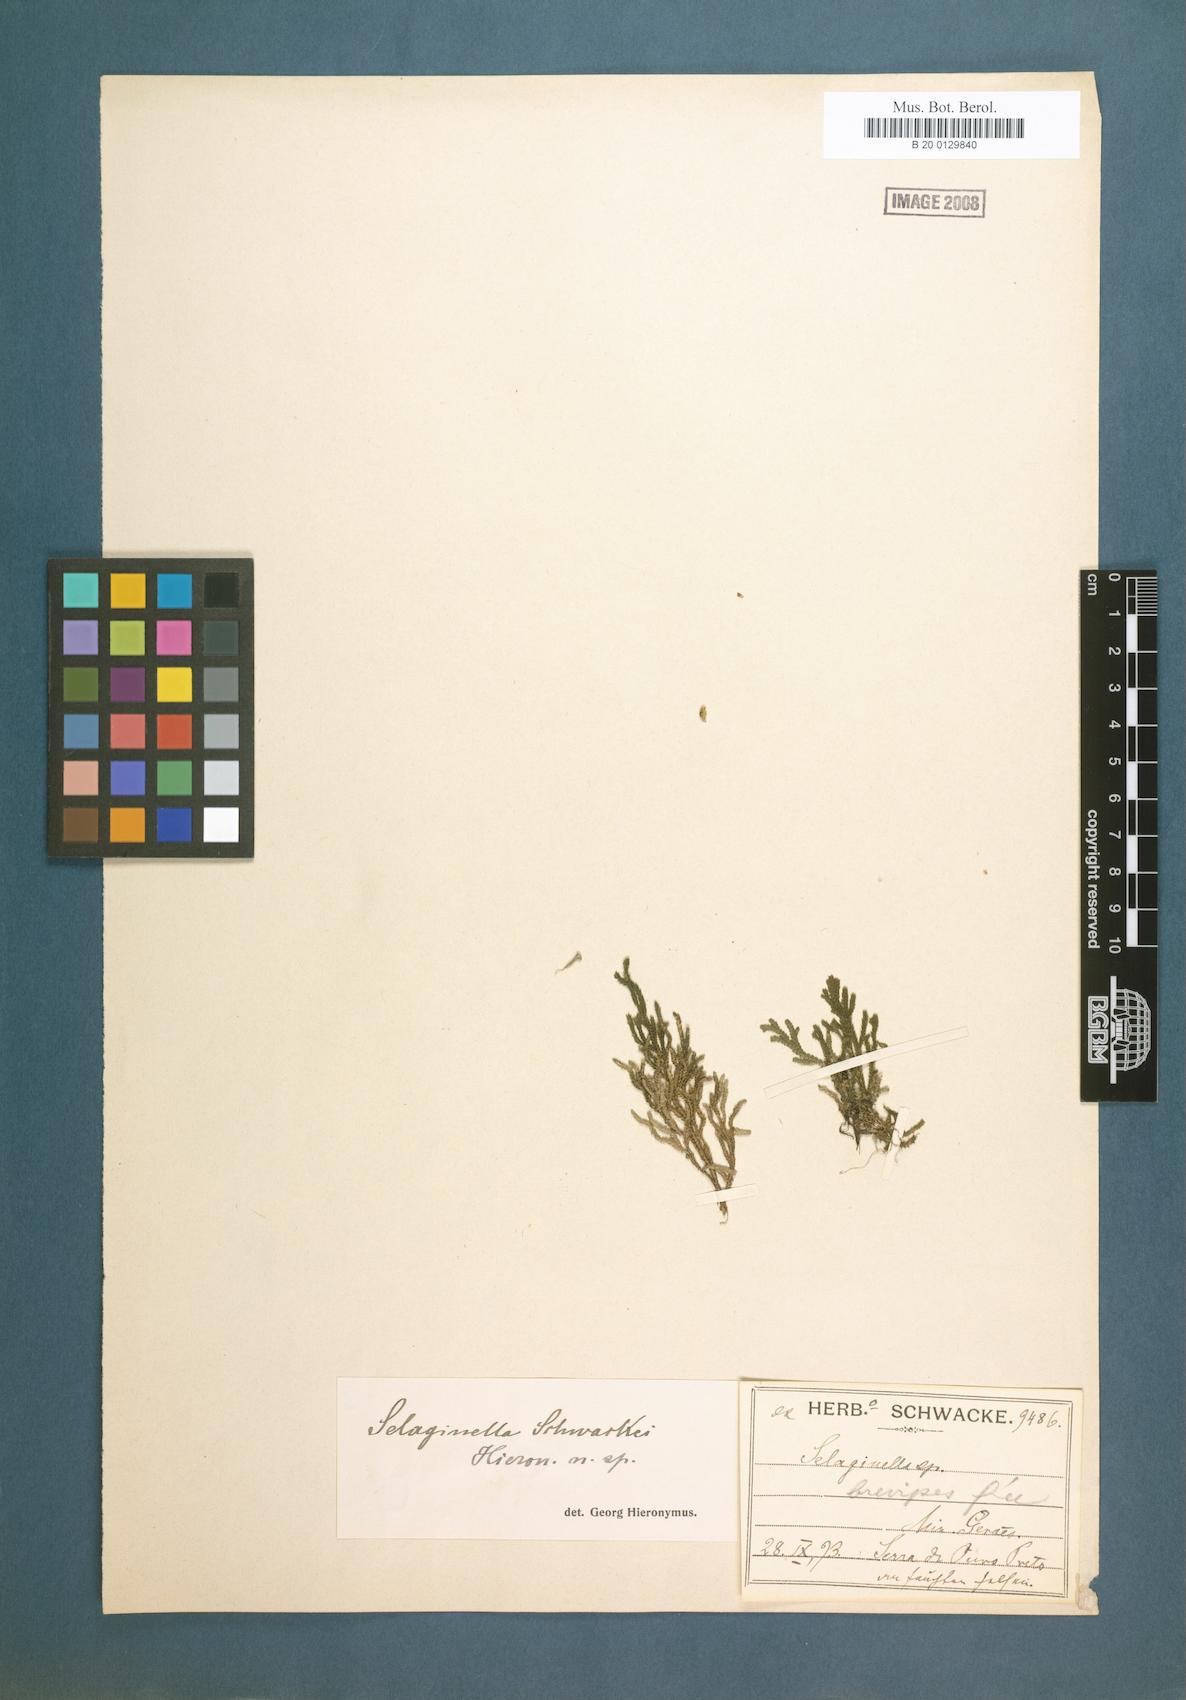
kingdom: Plantae
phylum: Tracheophyta
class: Lycopodiopsida
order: Selaginellales
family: Selaginellaceae
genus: Selaginella
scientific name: Selaginella erectifolia
